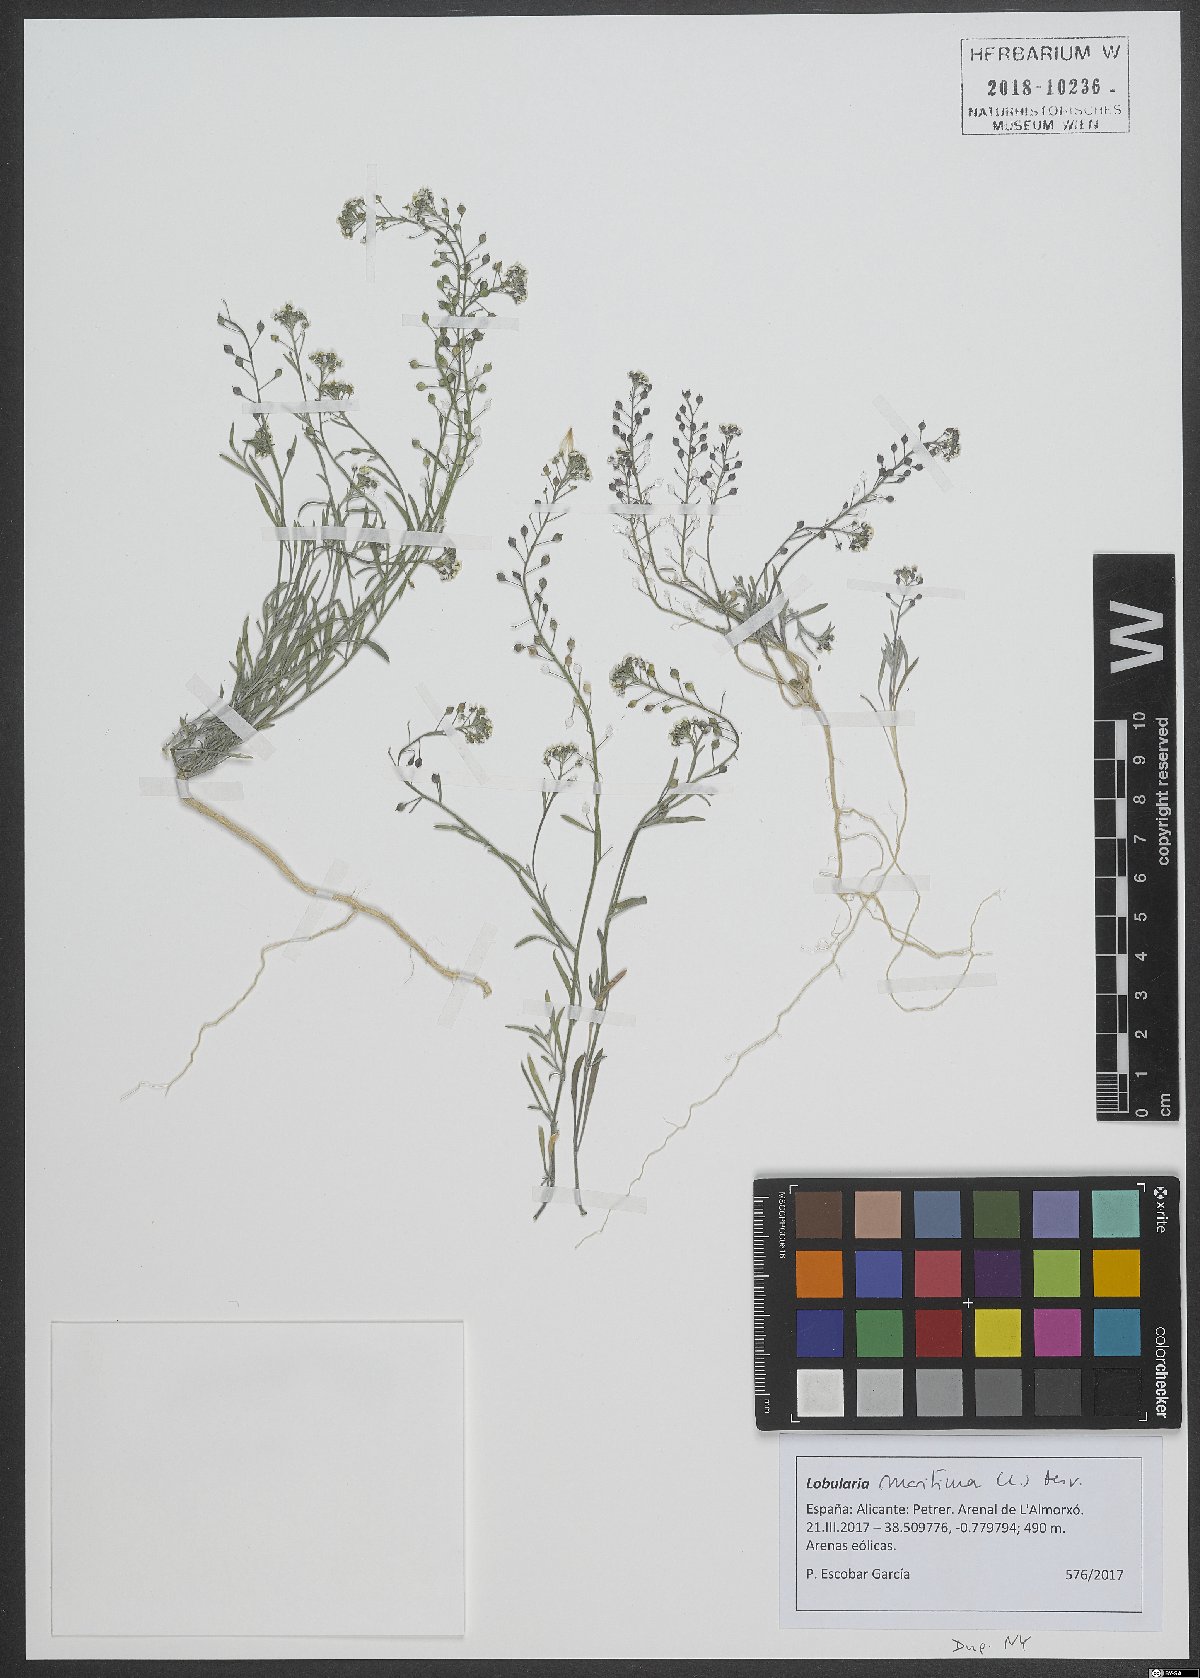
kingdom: Plantae
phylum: Tracheophyta
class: Magnoliopsida
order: Brassicales
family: Brassicaceae
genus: Lobularia
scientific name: Lobularia maritima
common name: Sweet alison
